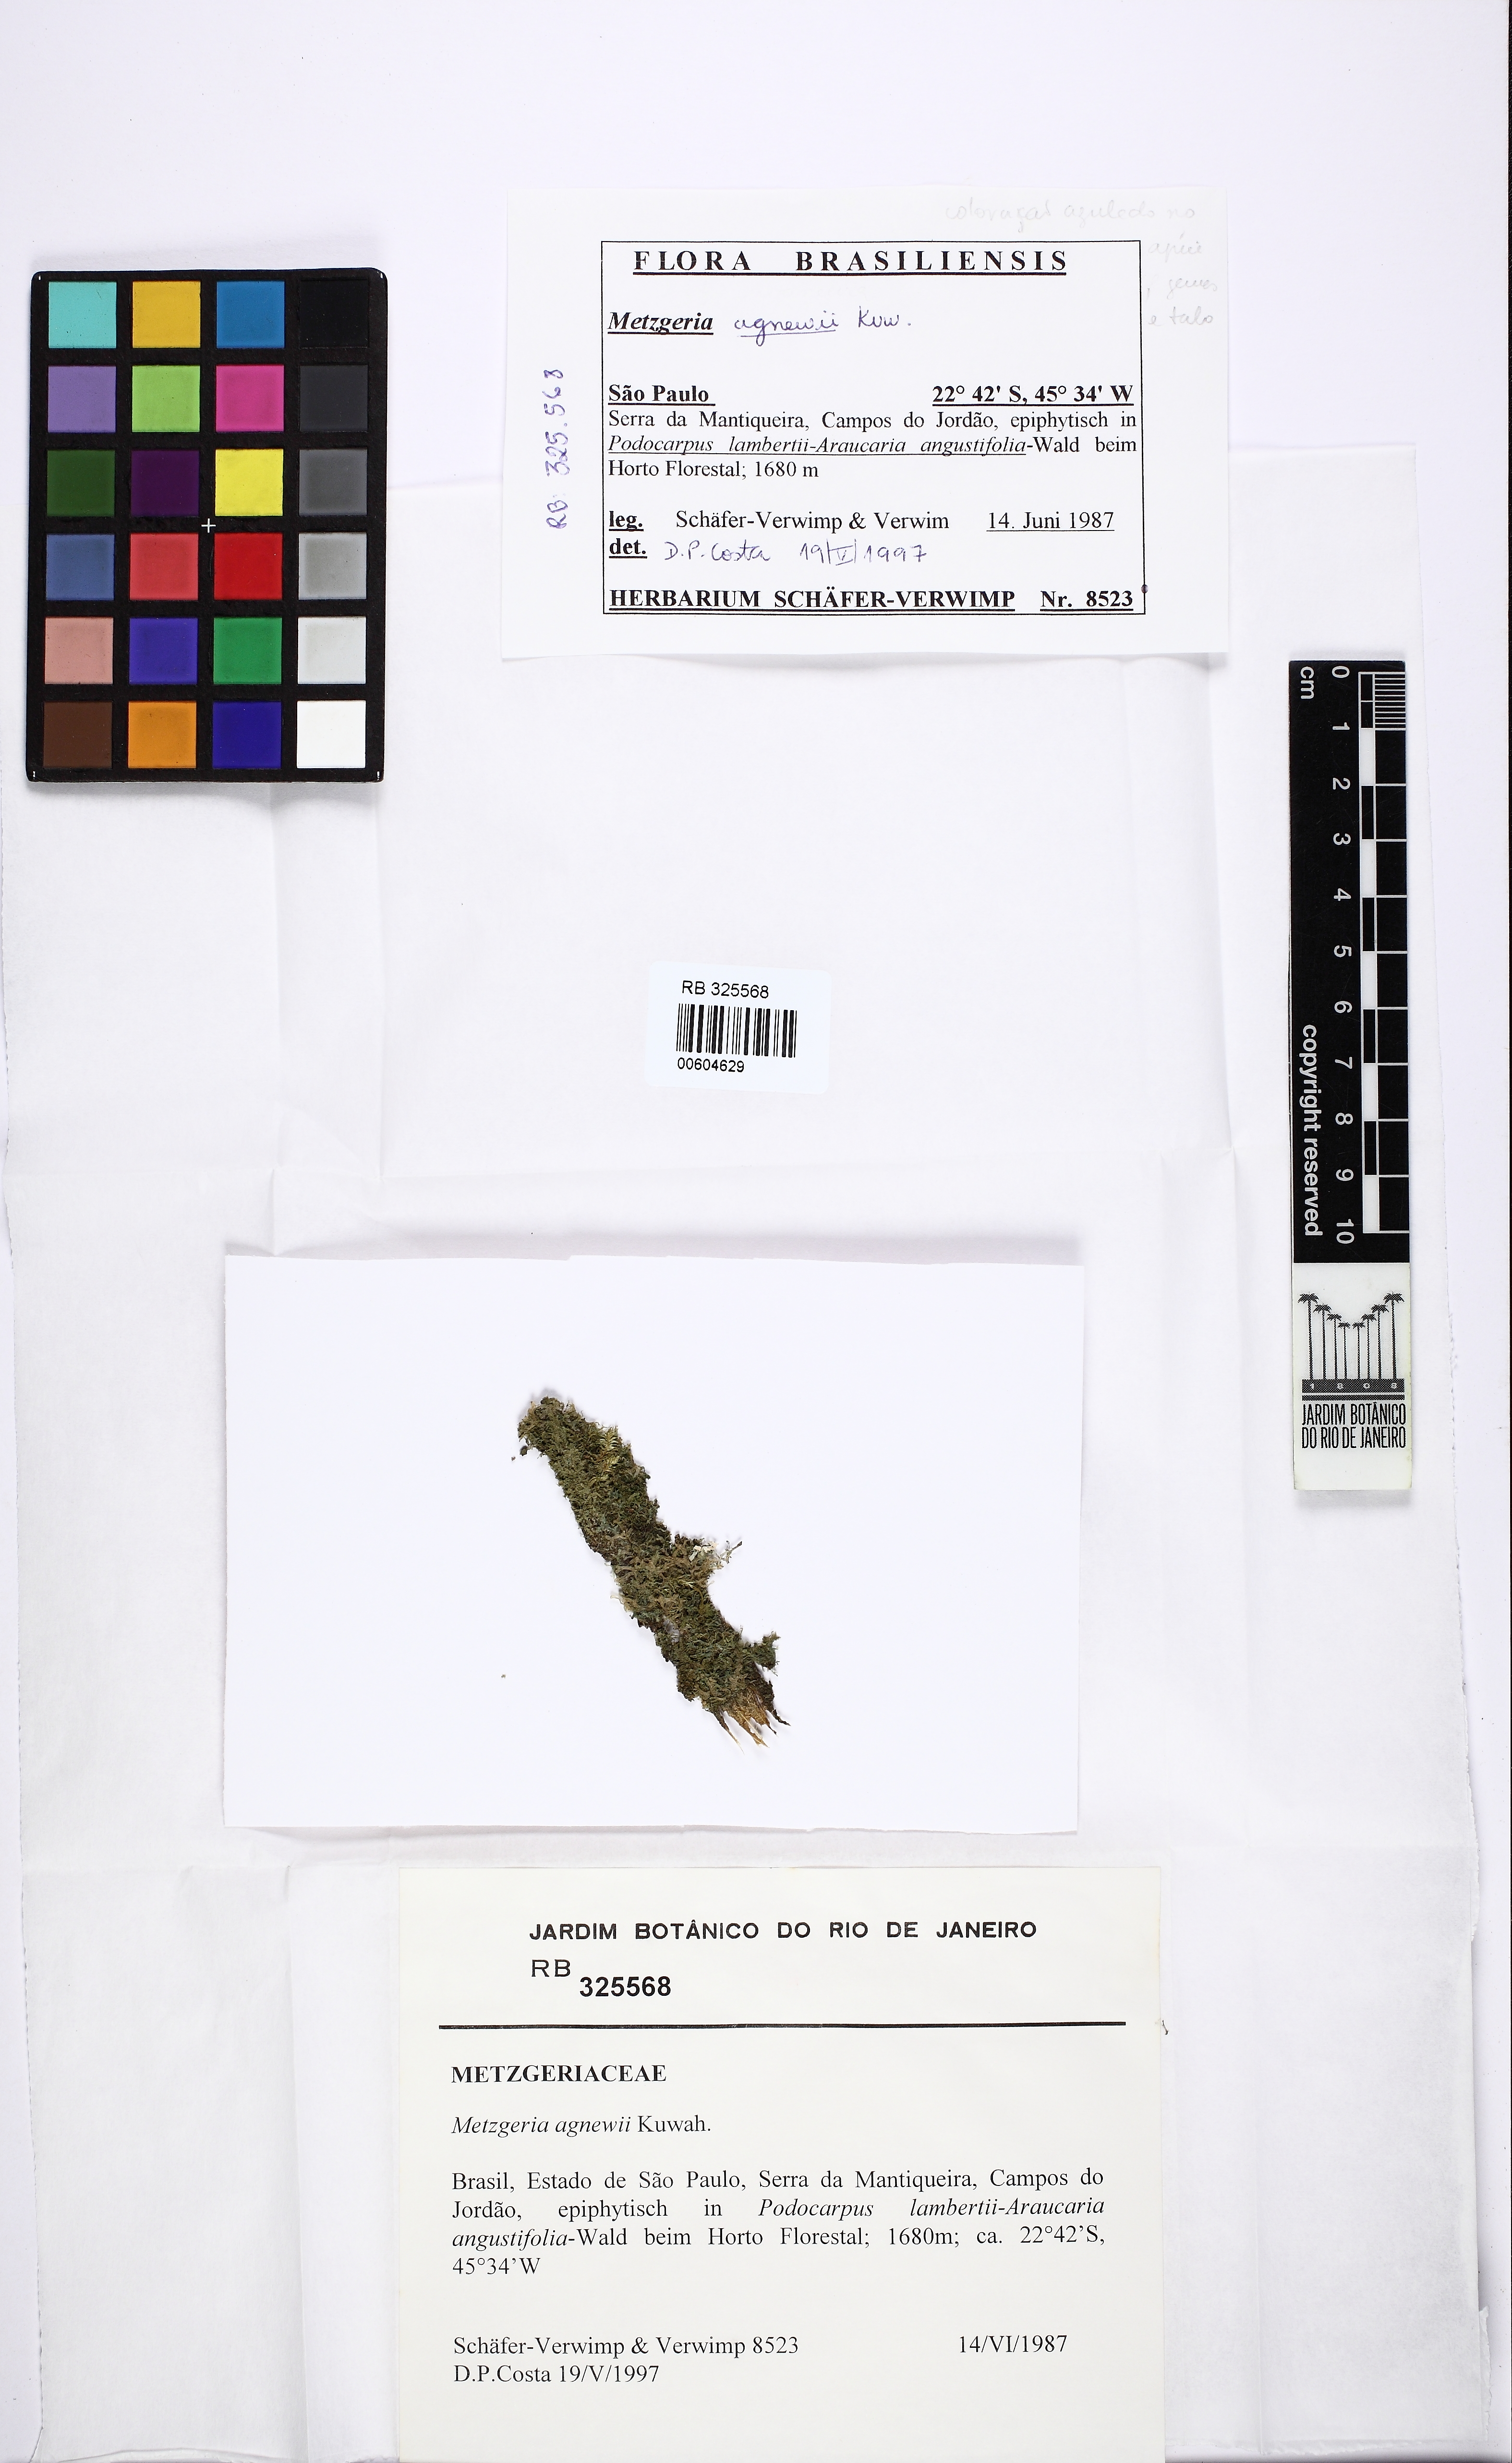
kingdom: Plantae
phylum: Marchantiophyta
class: Jungermanniopsida
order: Metzgeriales
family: Metzgeriaceae
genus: Metzgeria
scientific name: Metzgeria agnewiae
